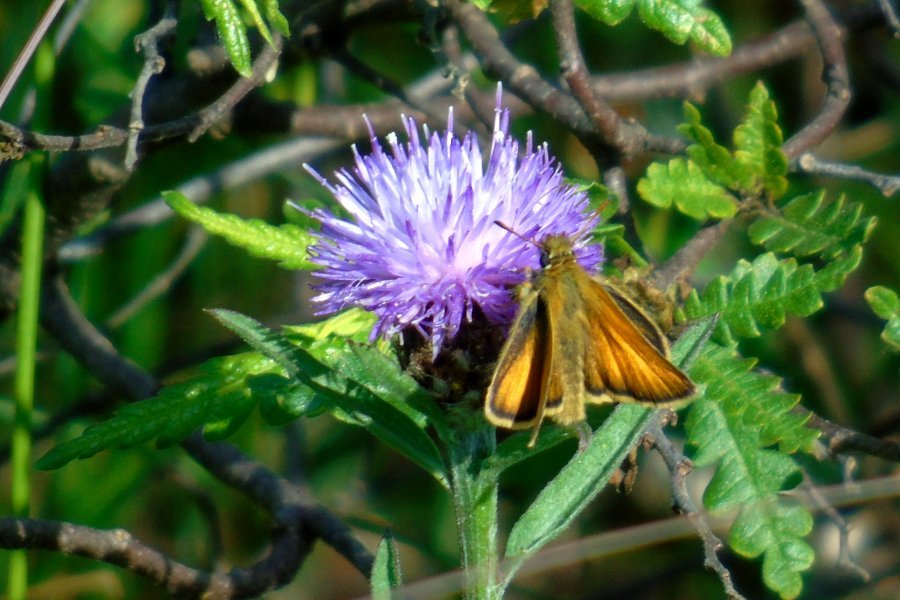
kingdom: Animalia
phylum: Arthropoda
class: Insecta
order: Lepidoptera
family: Hesperiidae
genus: Thymelicus
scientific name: Thymelicus lineola
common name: European Skipper
